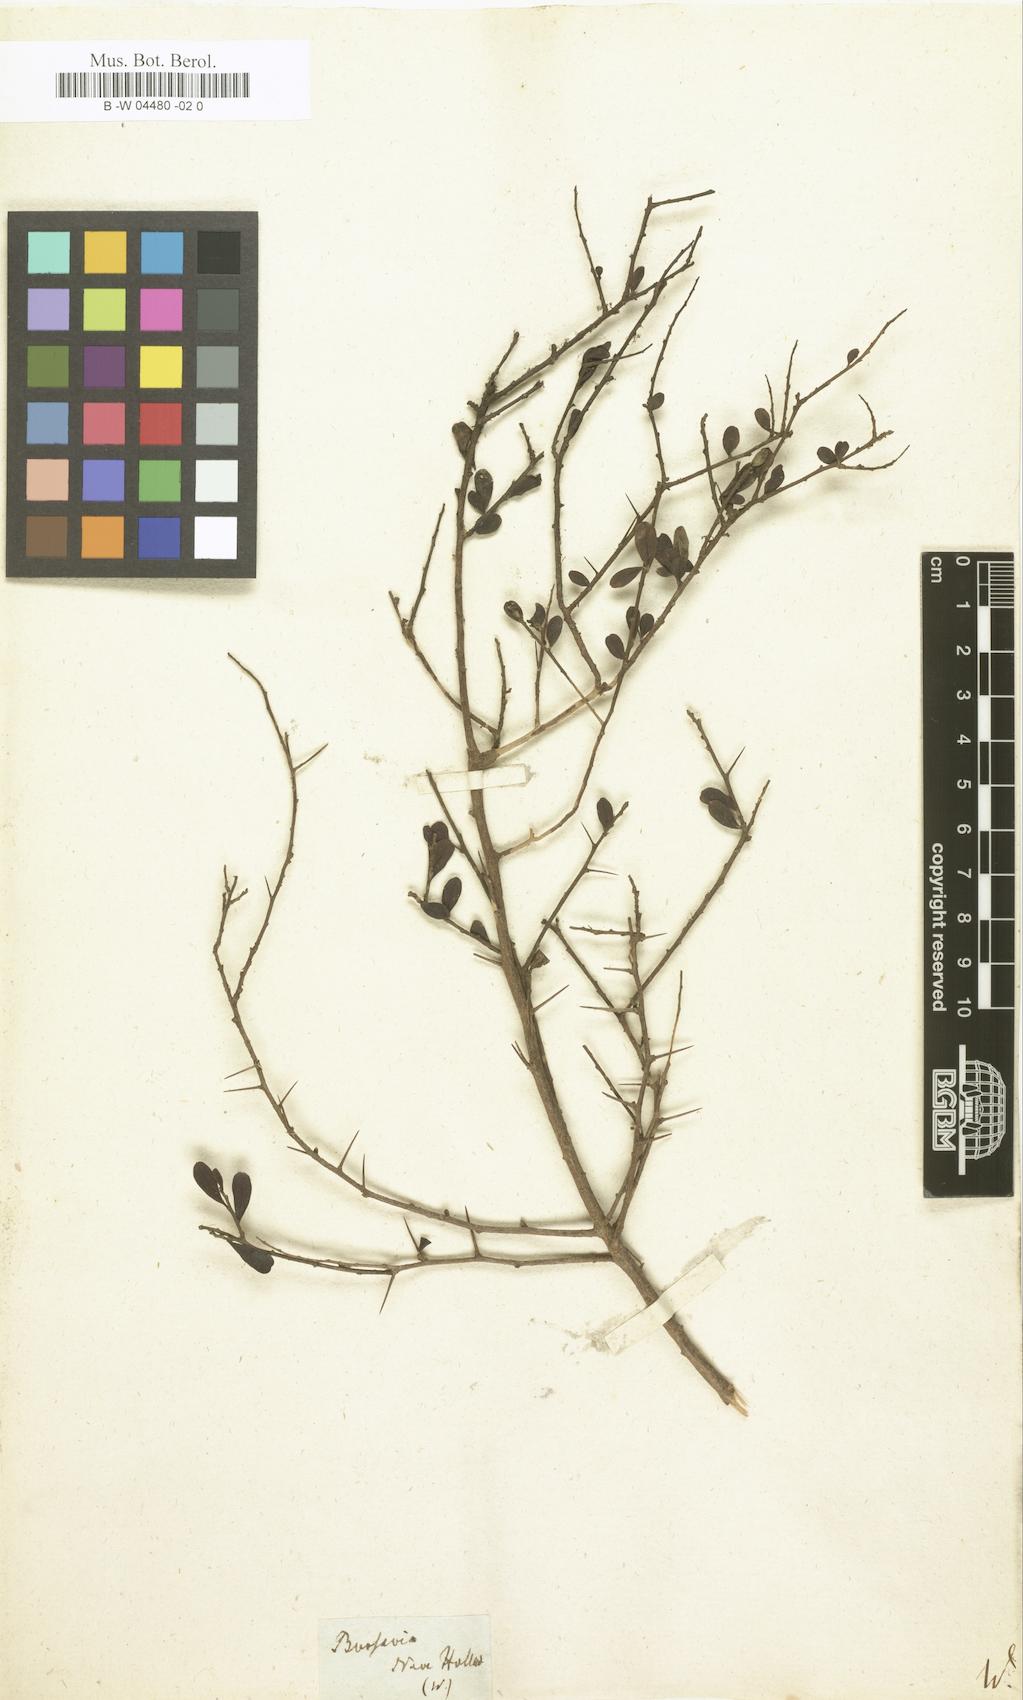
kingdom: Plantae
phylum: Tracheophyta
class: Magnoliopsida
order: Apiales
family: Pittosporaceae
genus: Bursaria
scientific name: Bursaria spinosa
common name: Australian blackthorn
